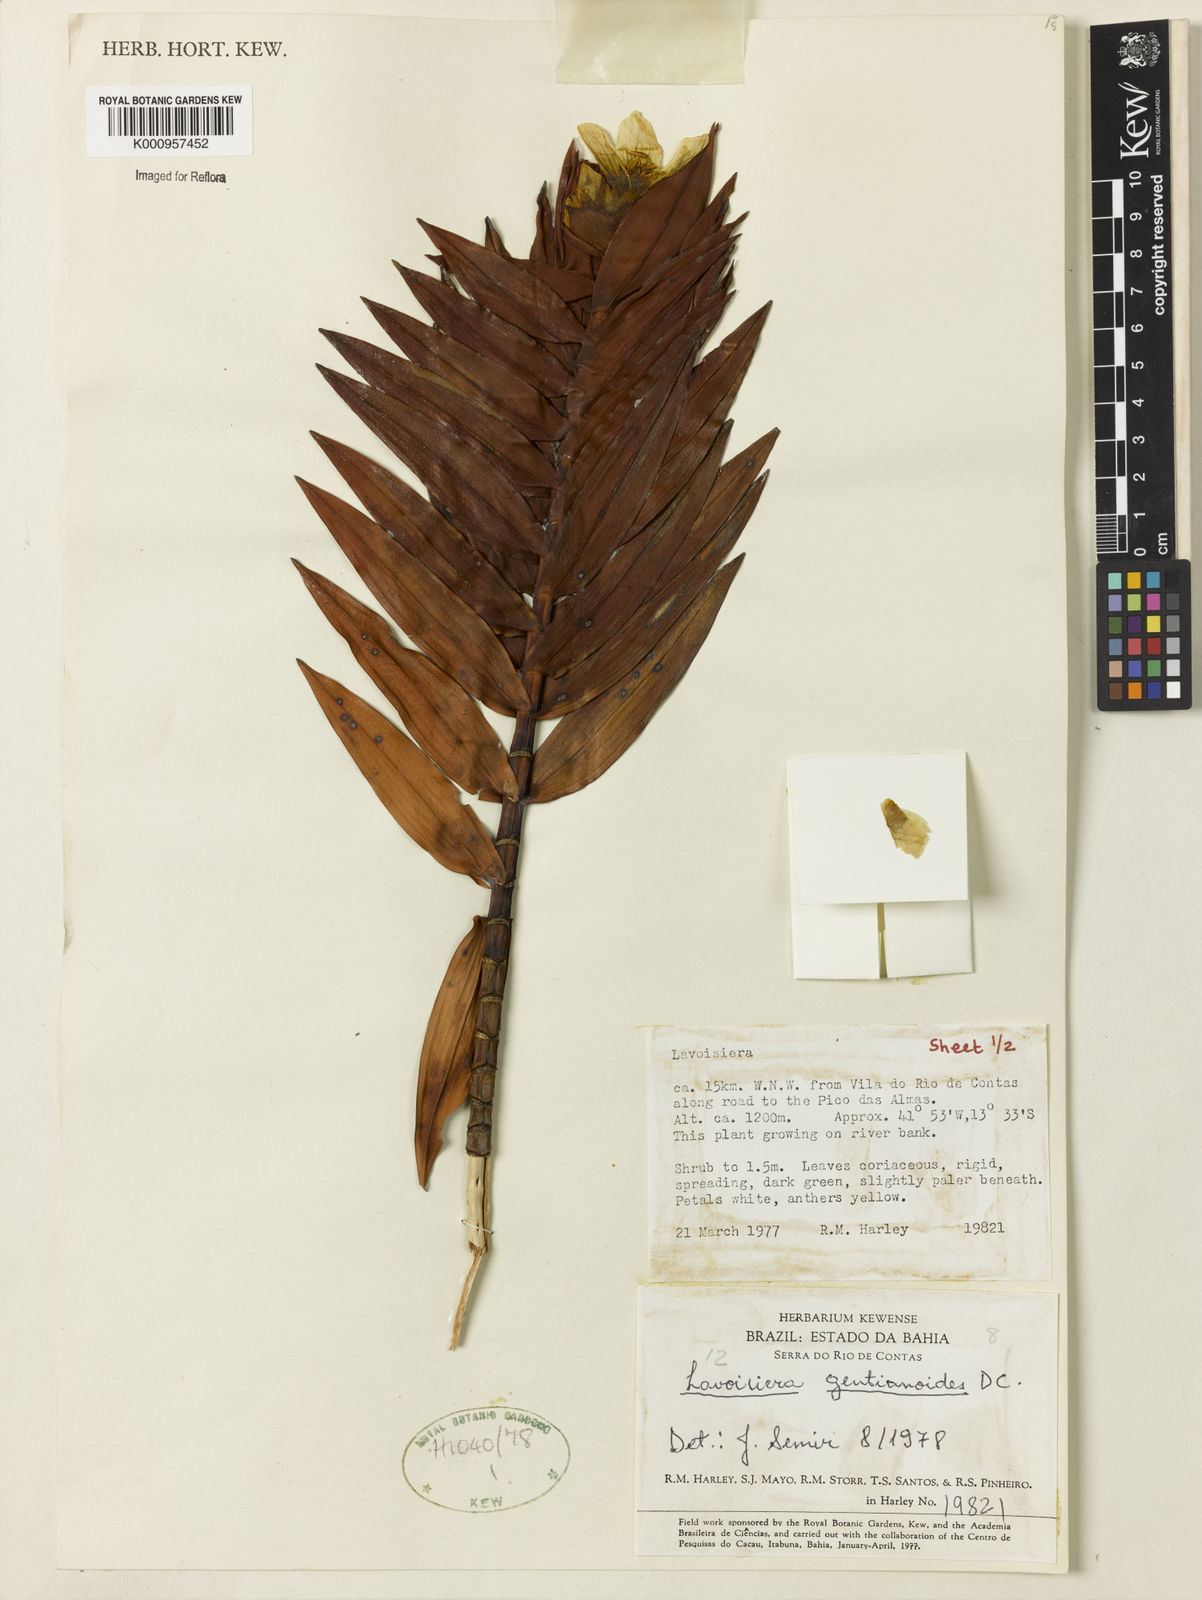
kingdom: Plantae
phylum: Tracheophyta
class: Magnoliopsida
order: Myrtales
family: Melastomataceae
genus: Microlicia
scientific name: Microlicia gentianoides
